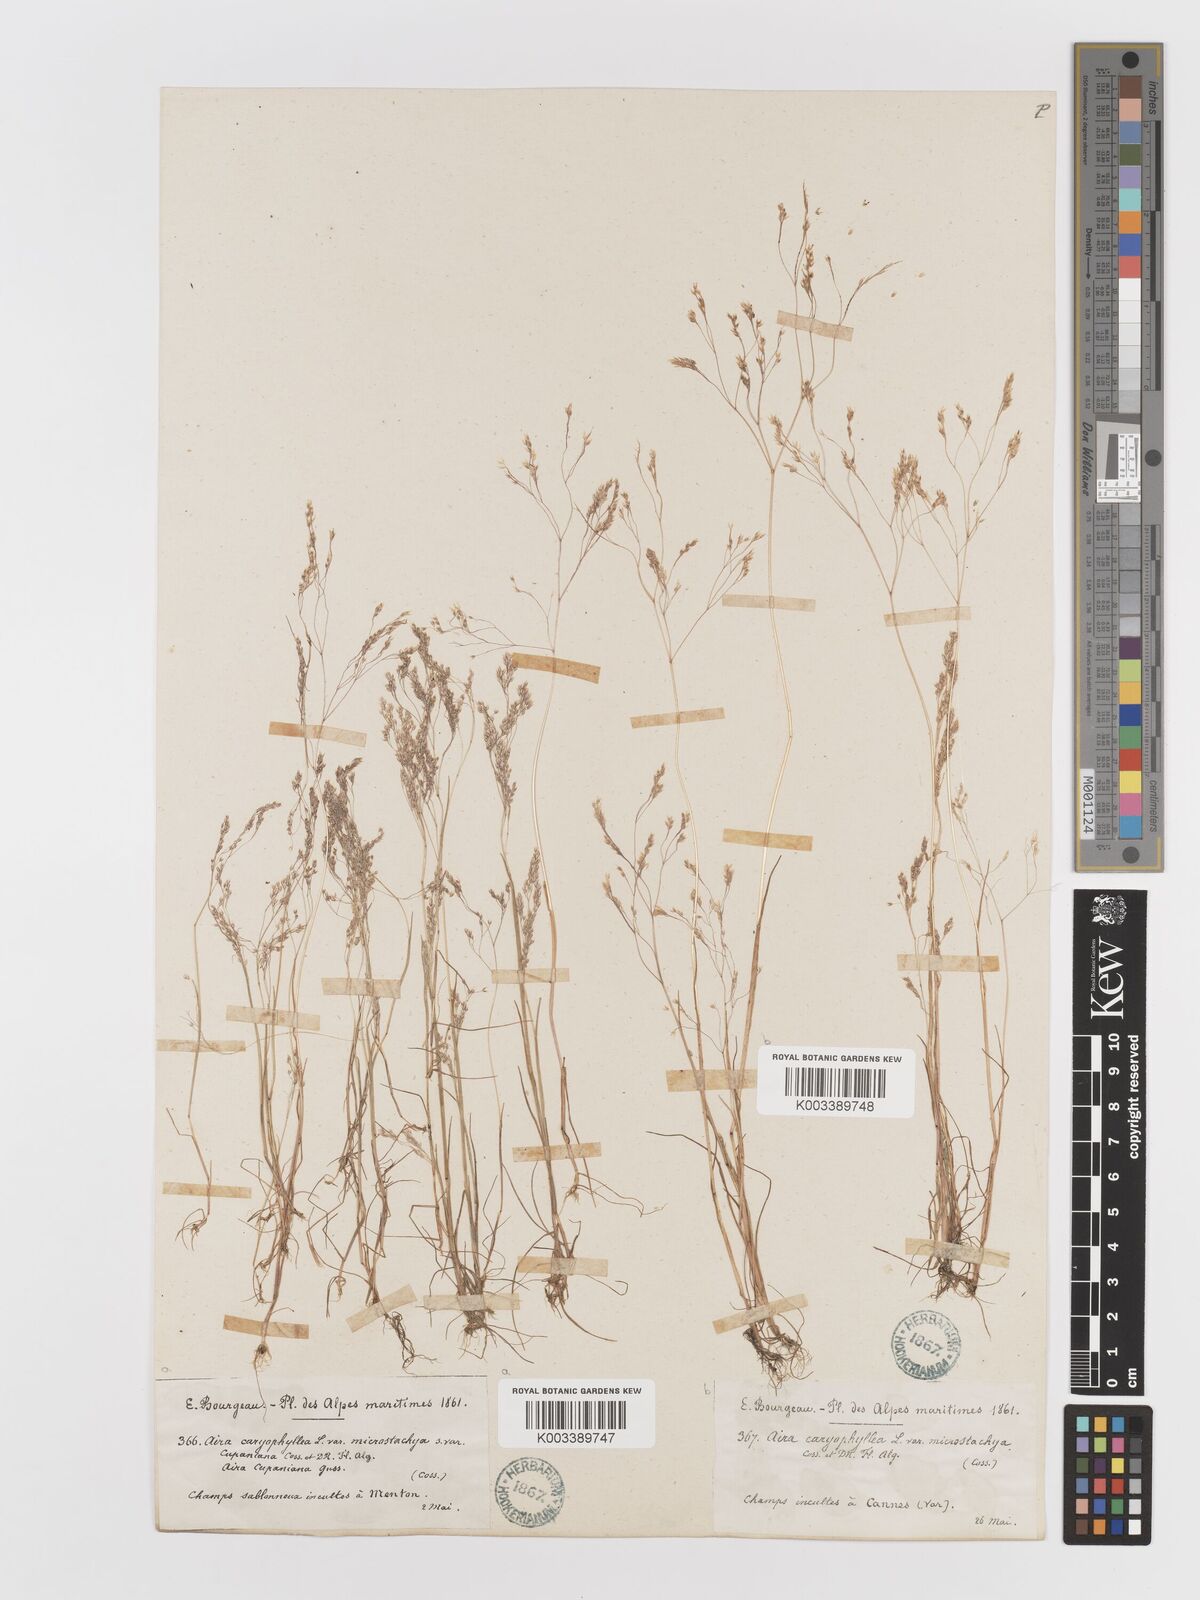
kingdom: Plantae
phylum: Tracheophyta
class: Liliopsida
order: Poales
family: Poaceae
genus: Aira
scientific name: Aira cupaniana
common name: Silver hairgrass
